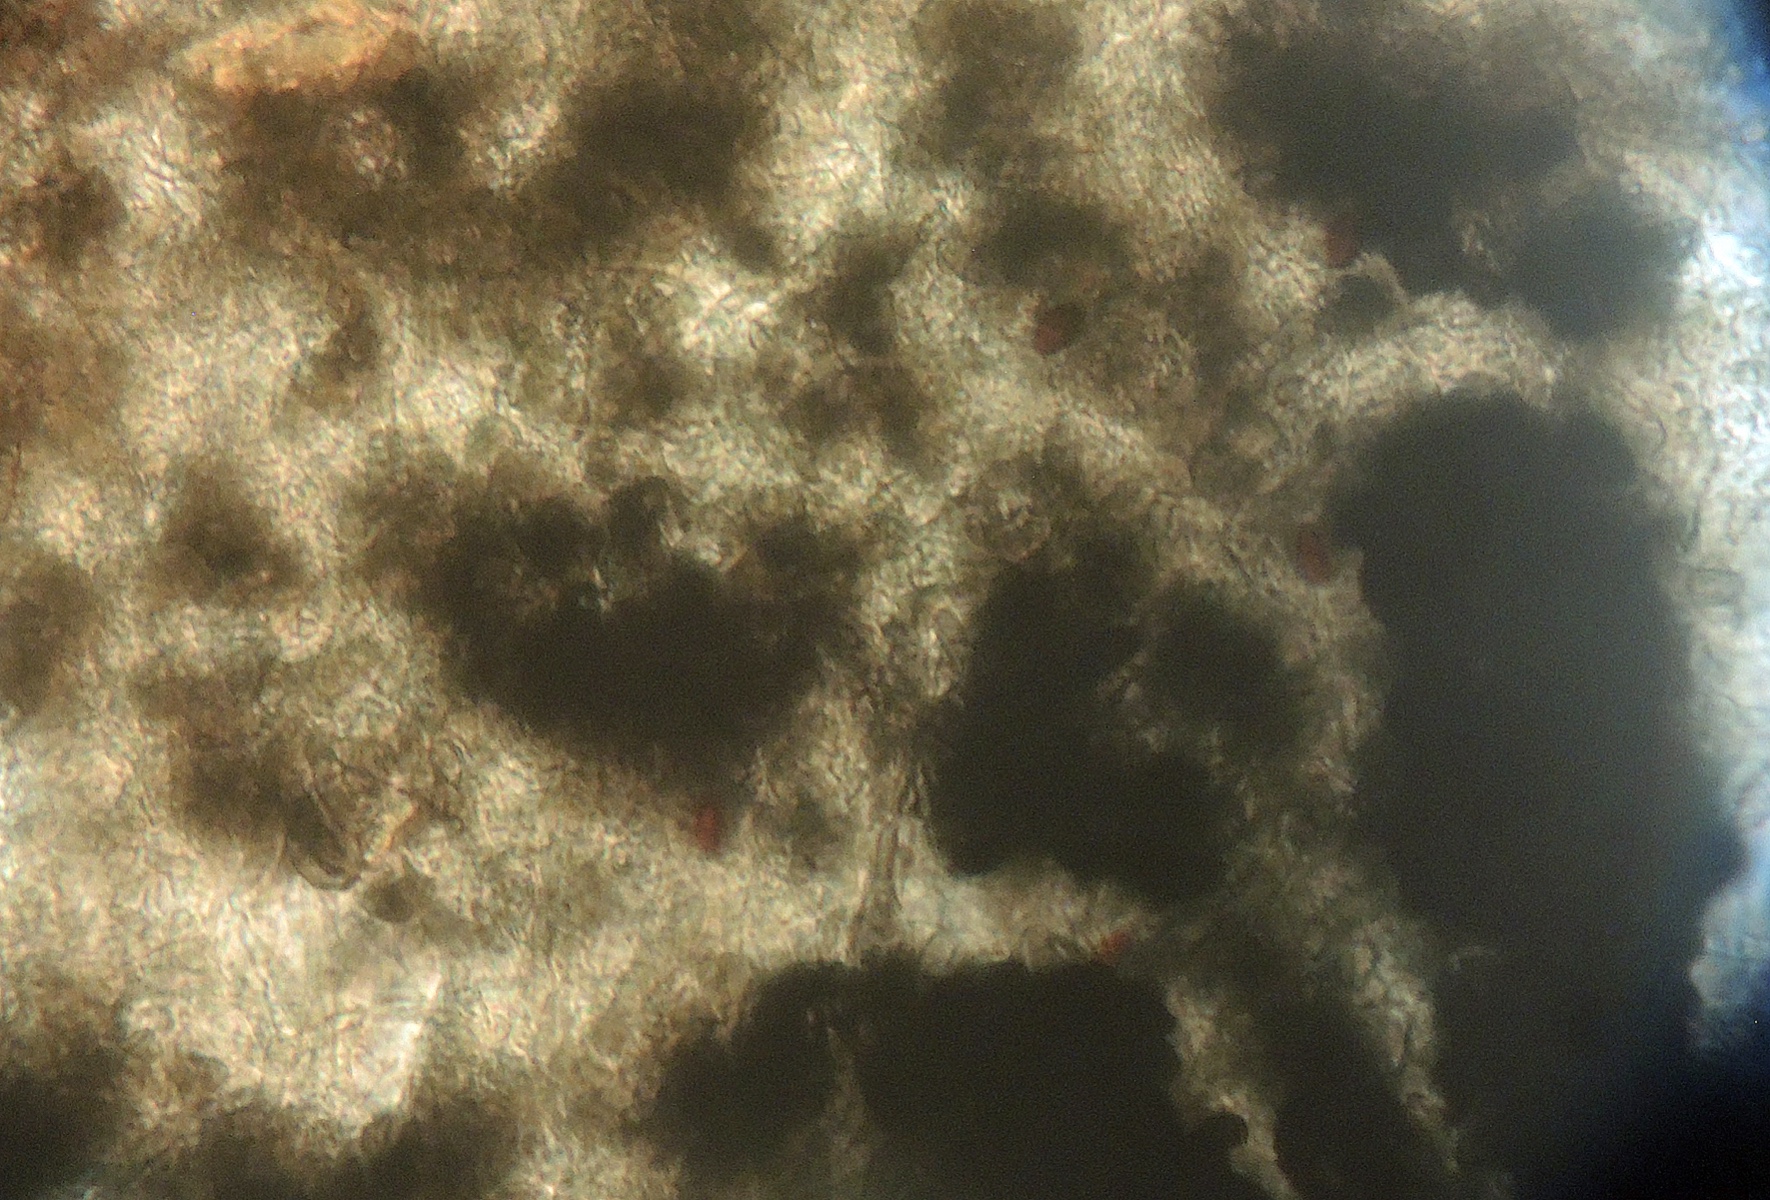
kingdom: Fungi
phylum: Ascomycota
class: Sordariomycetes
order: Sordariales
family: Podosporaceae
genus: Cladorrhinum
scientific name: Cladorrhinum coprophilum
